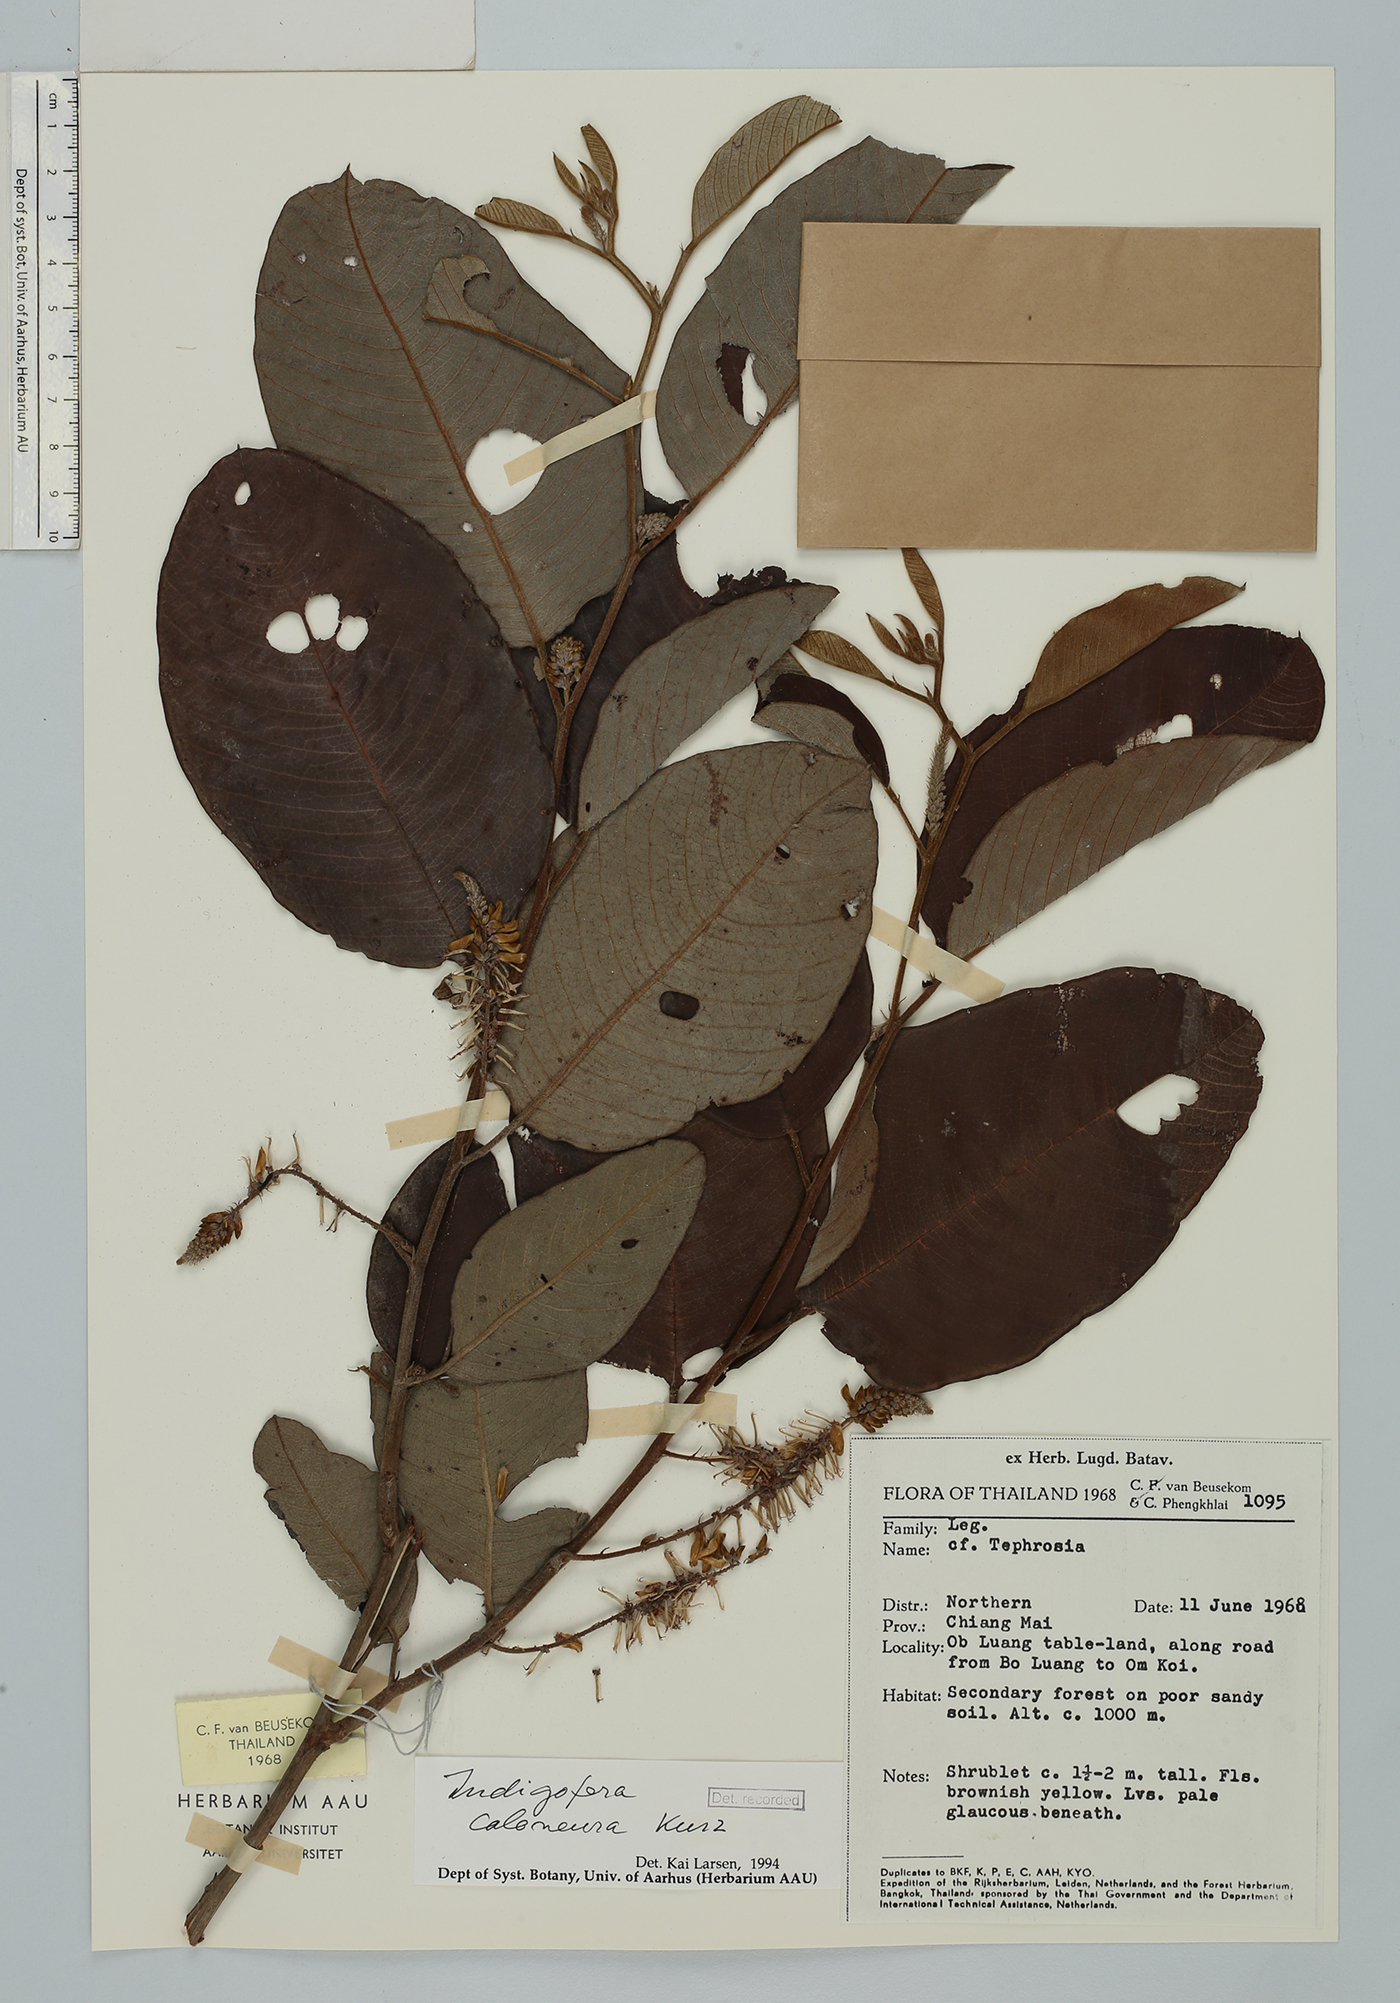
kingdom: Plantae
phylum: Tracheophyta
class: Magnoliopsida
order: Fabales
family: Fabaceae
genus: Indigofera
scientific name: Indigofera caloneura
